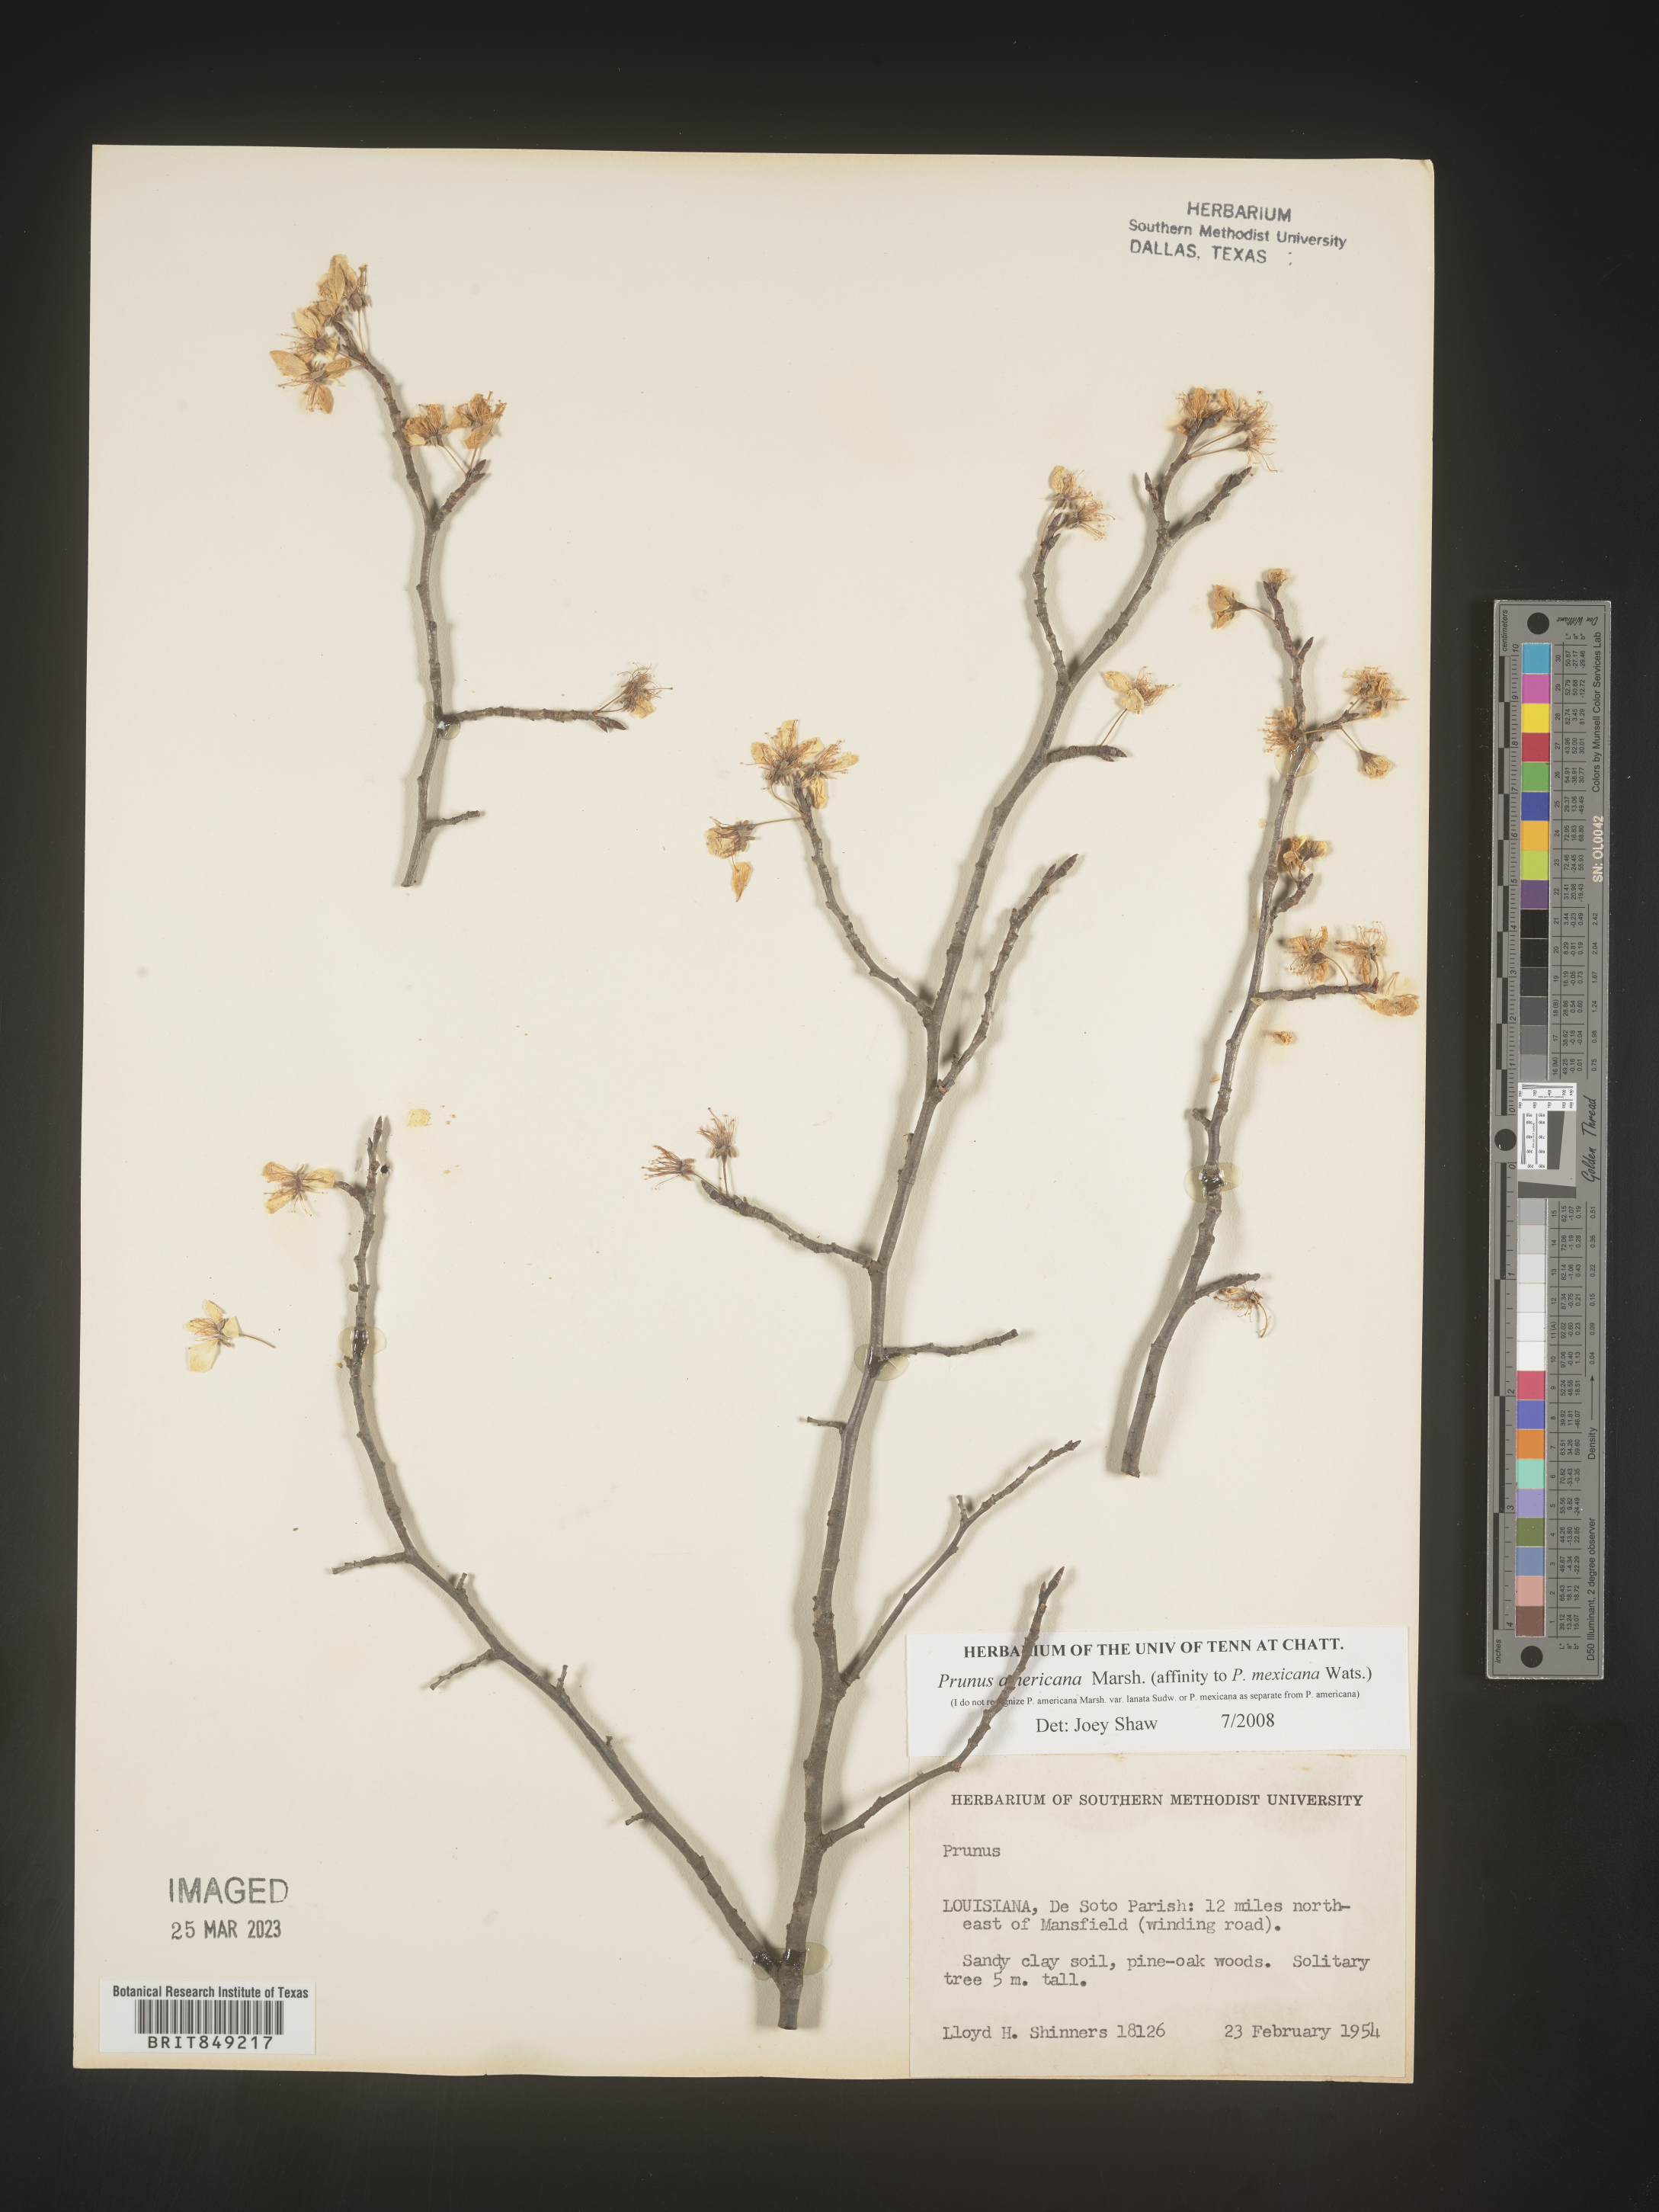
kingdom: Plantae
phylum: Tracheophyta
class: Magnoliopsida
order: Rosales
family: Rosaceae
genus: Prunus
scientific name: Prunus americana
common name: American plum
